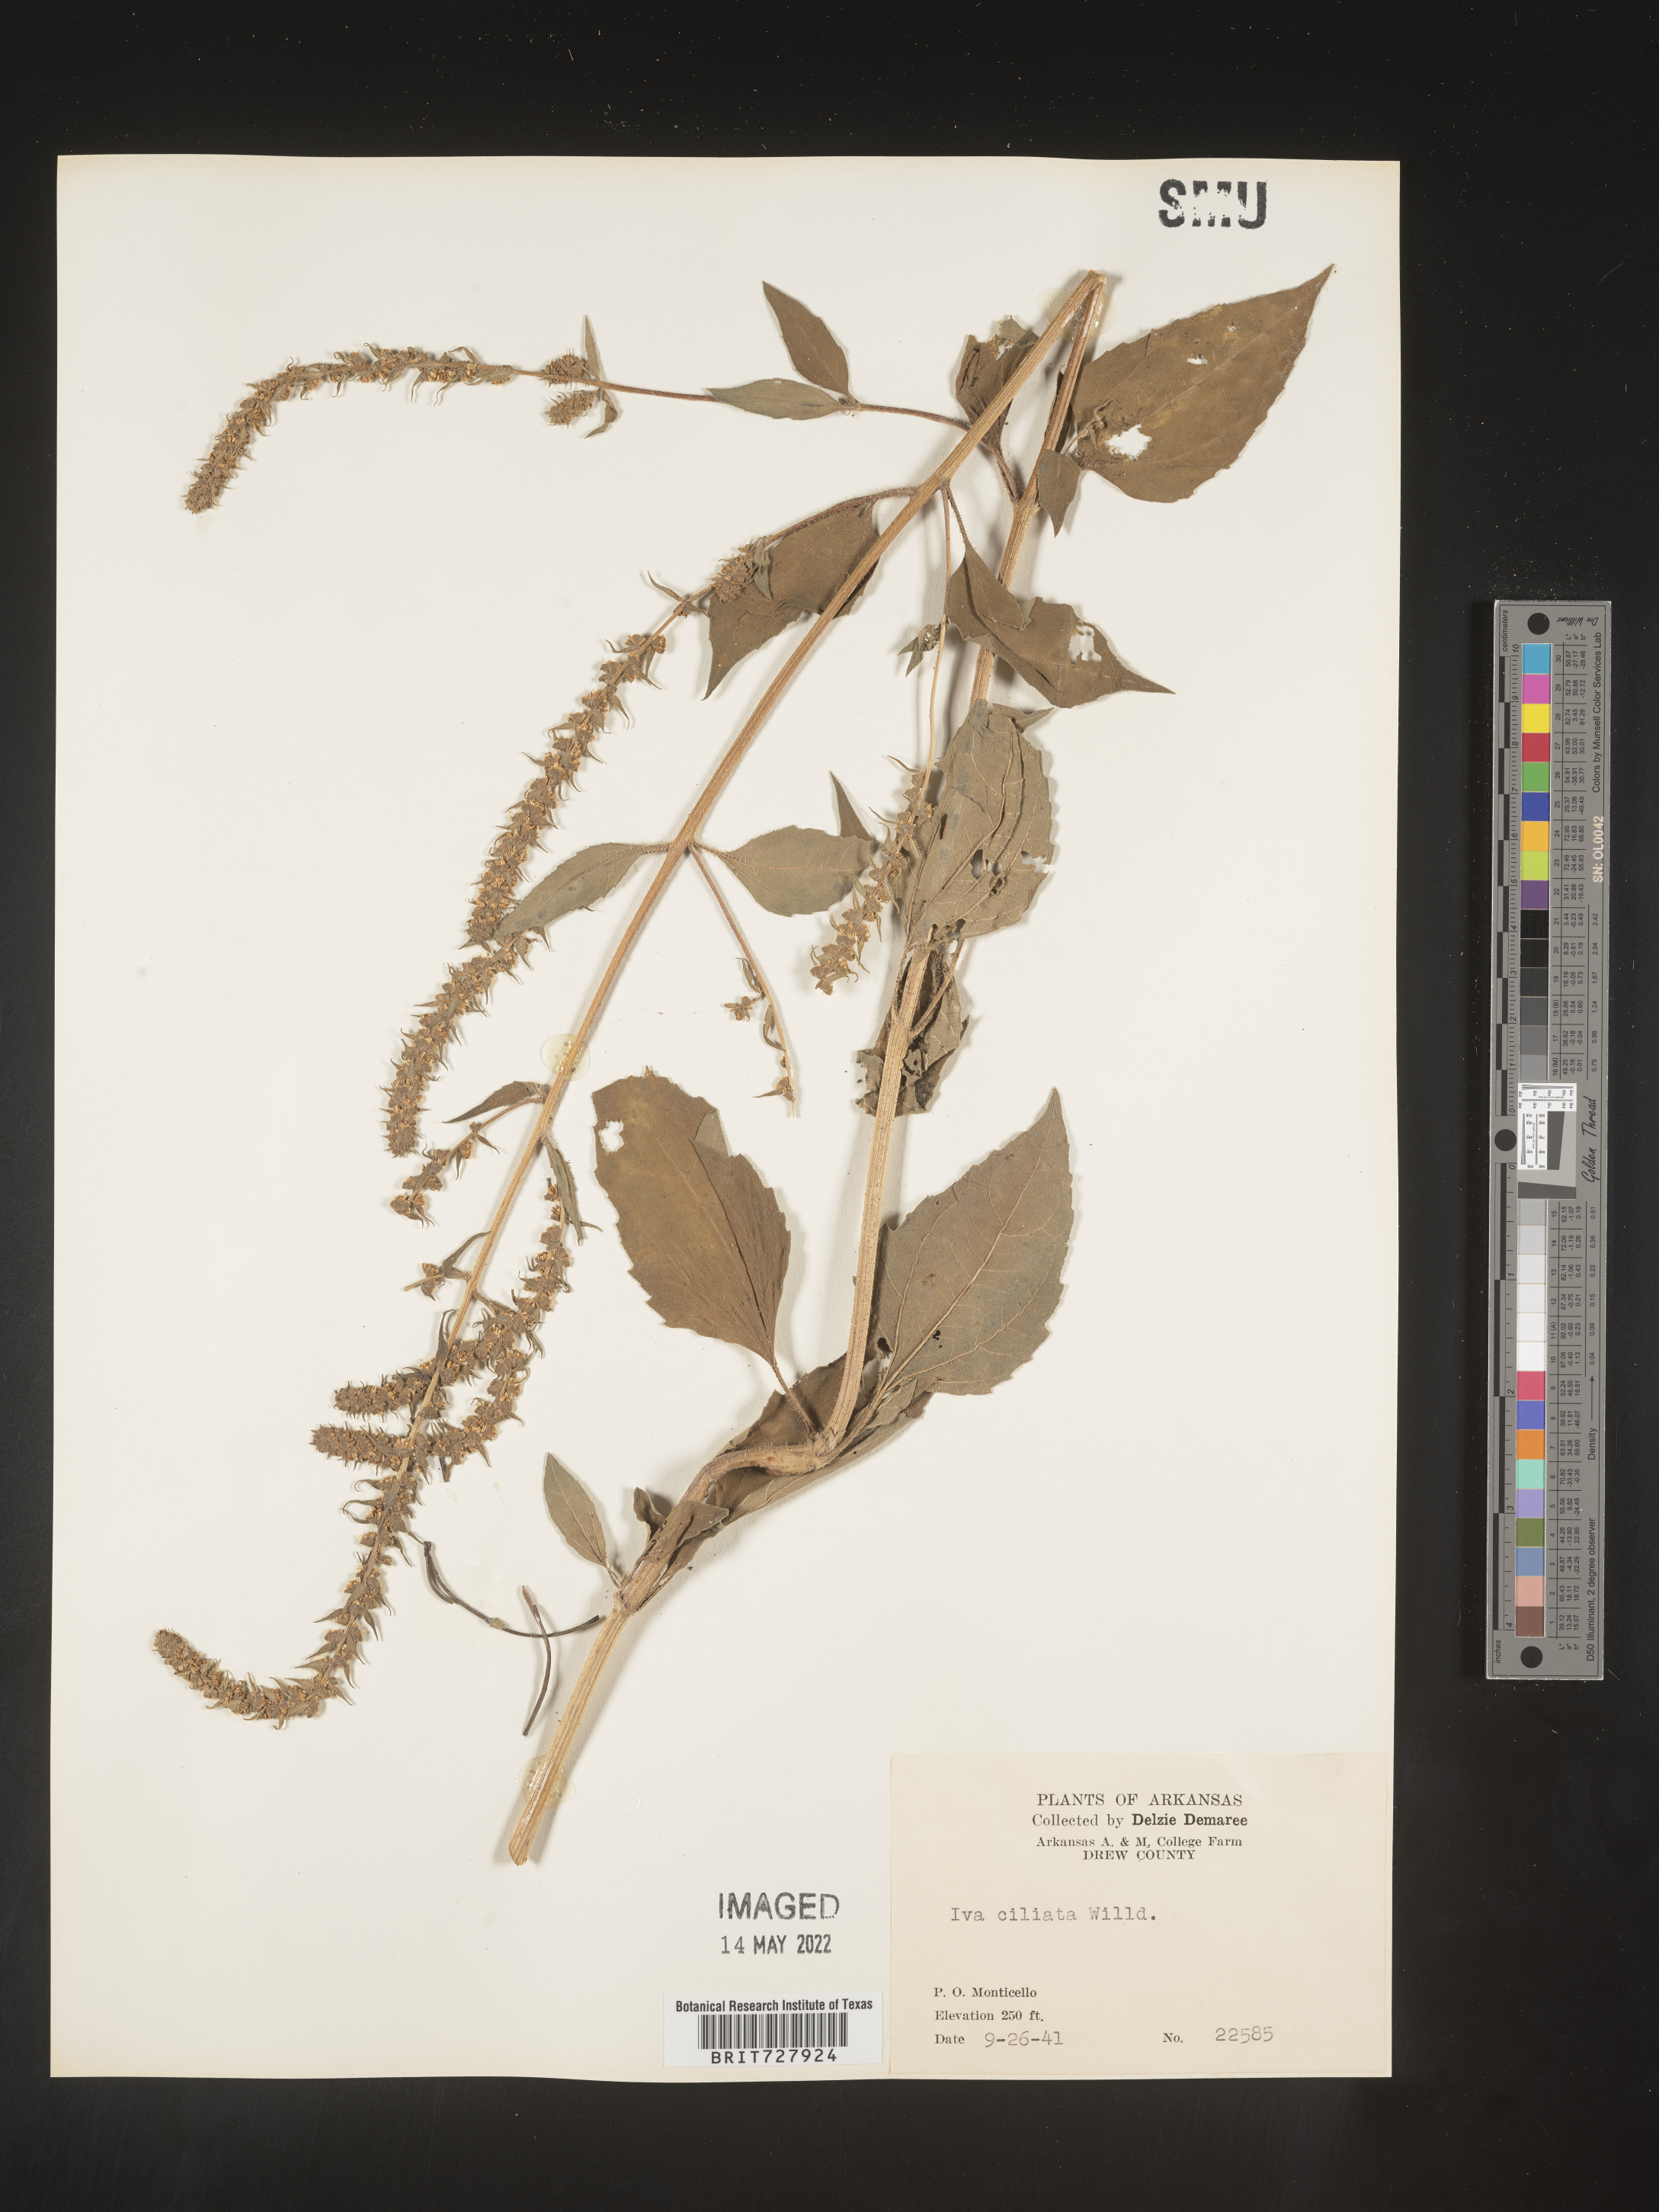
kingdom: Plantae
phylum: Tracheophyta
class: Magnoliopsida
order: Asterales
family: Asteraceae
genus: Iva
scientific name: Iva annua
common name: Marsh-elder
